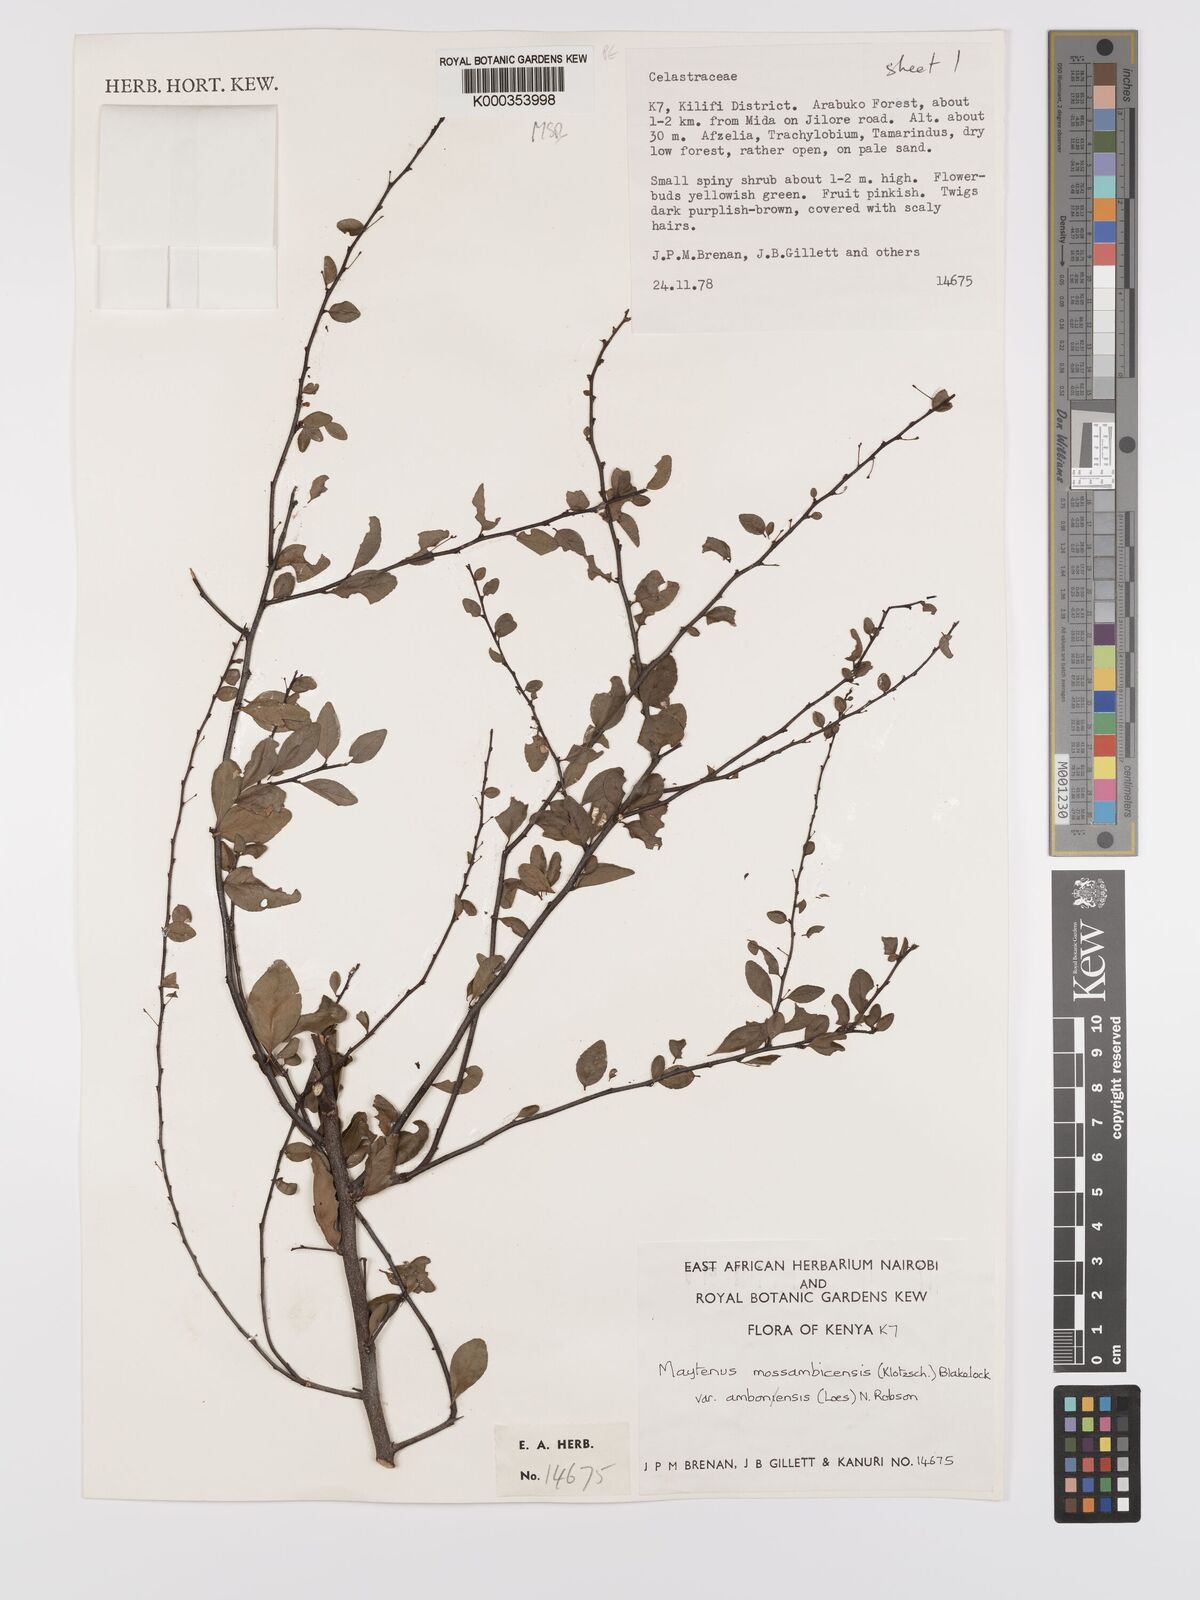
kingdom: Plantae
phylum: Tracheophyta
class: Magnoliopsida
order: Celastrales
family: Celastraceae
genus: Gymnosporia
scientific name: Gymnosporia mossambicensis
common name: Black forest spike-thorn
